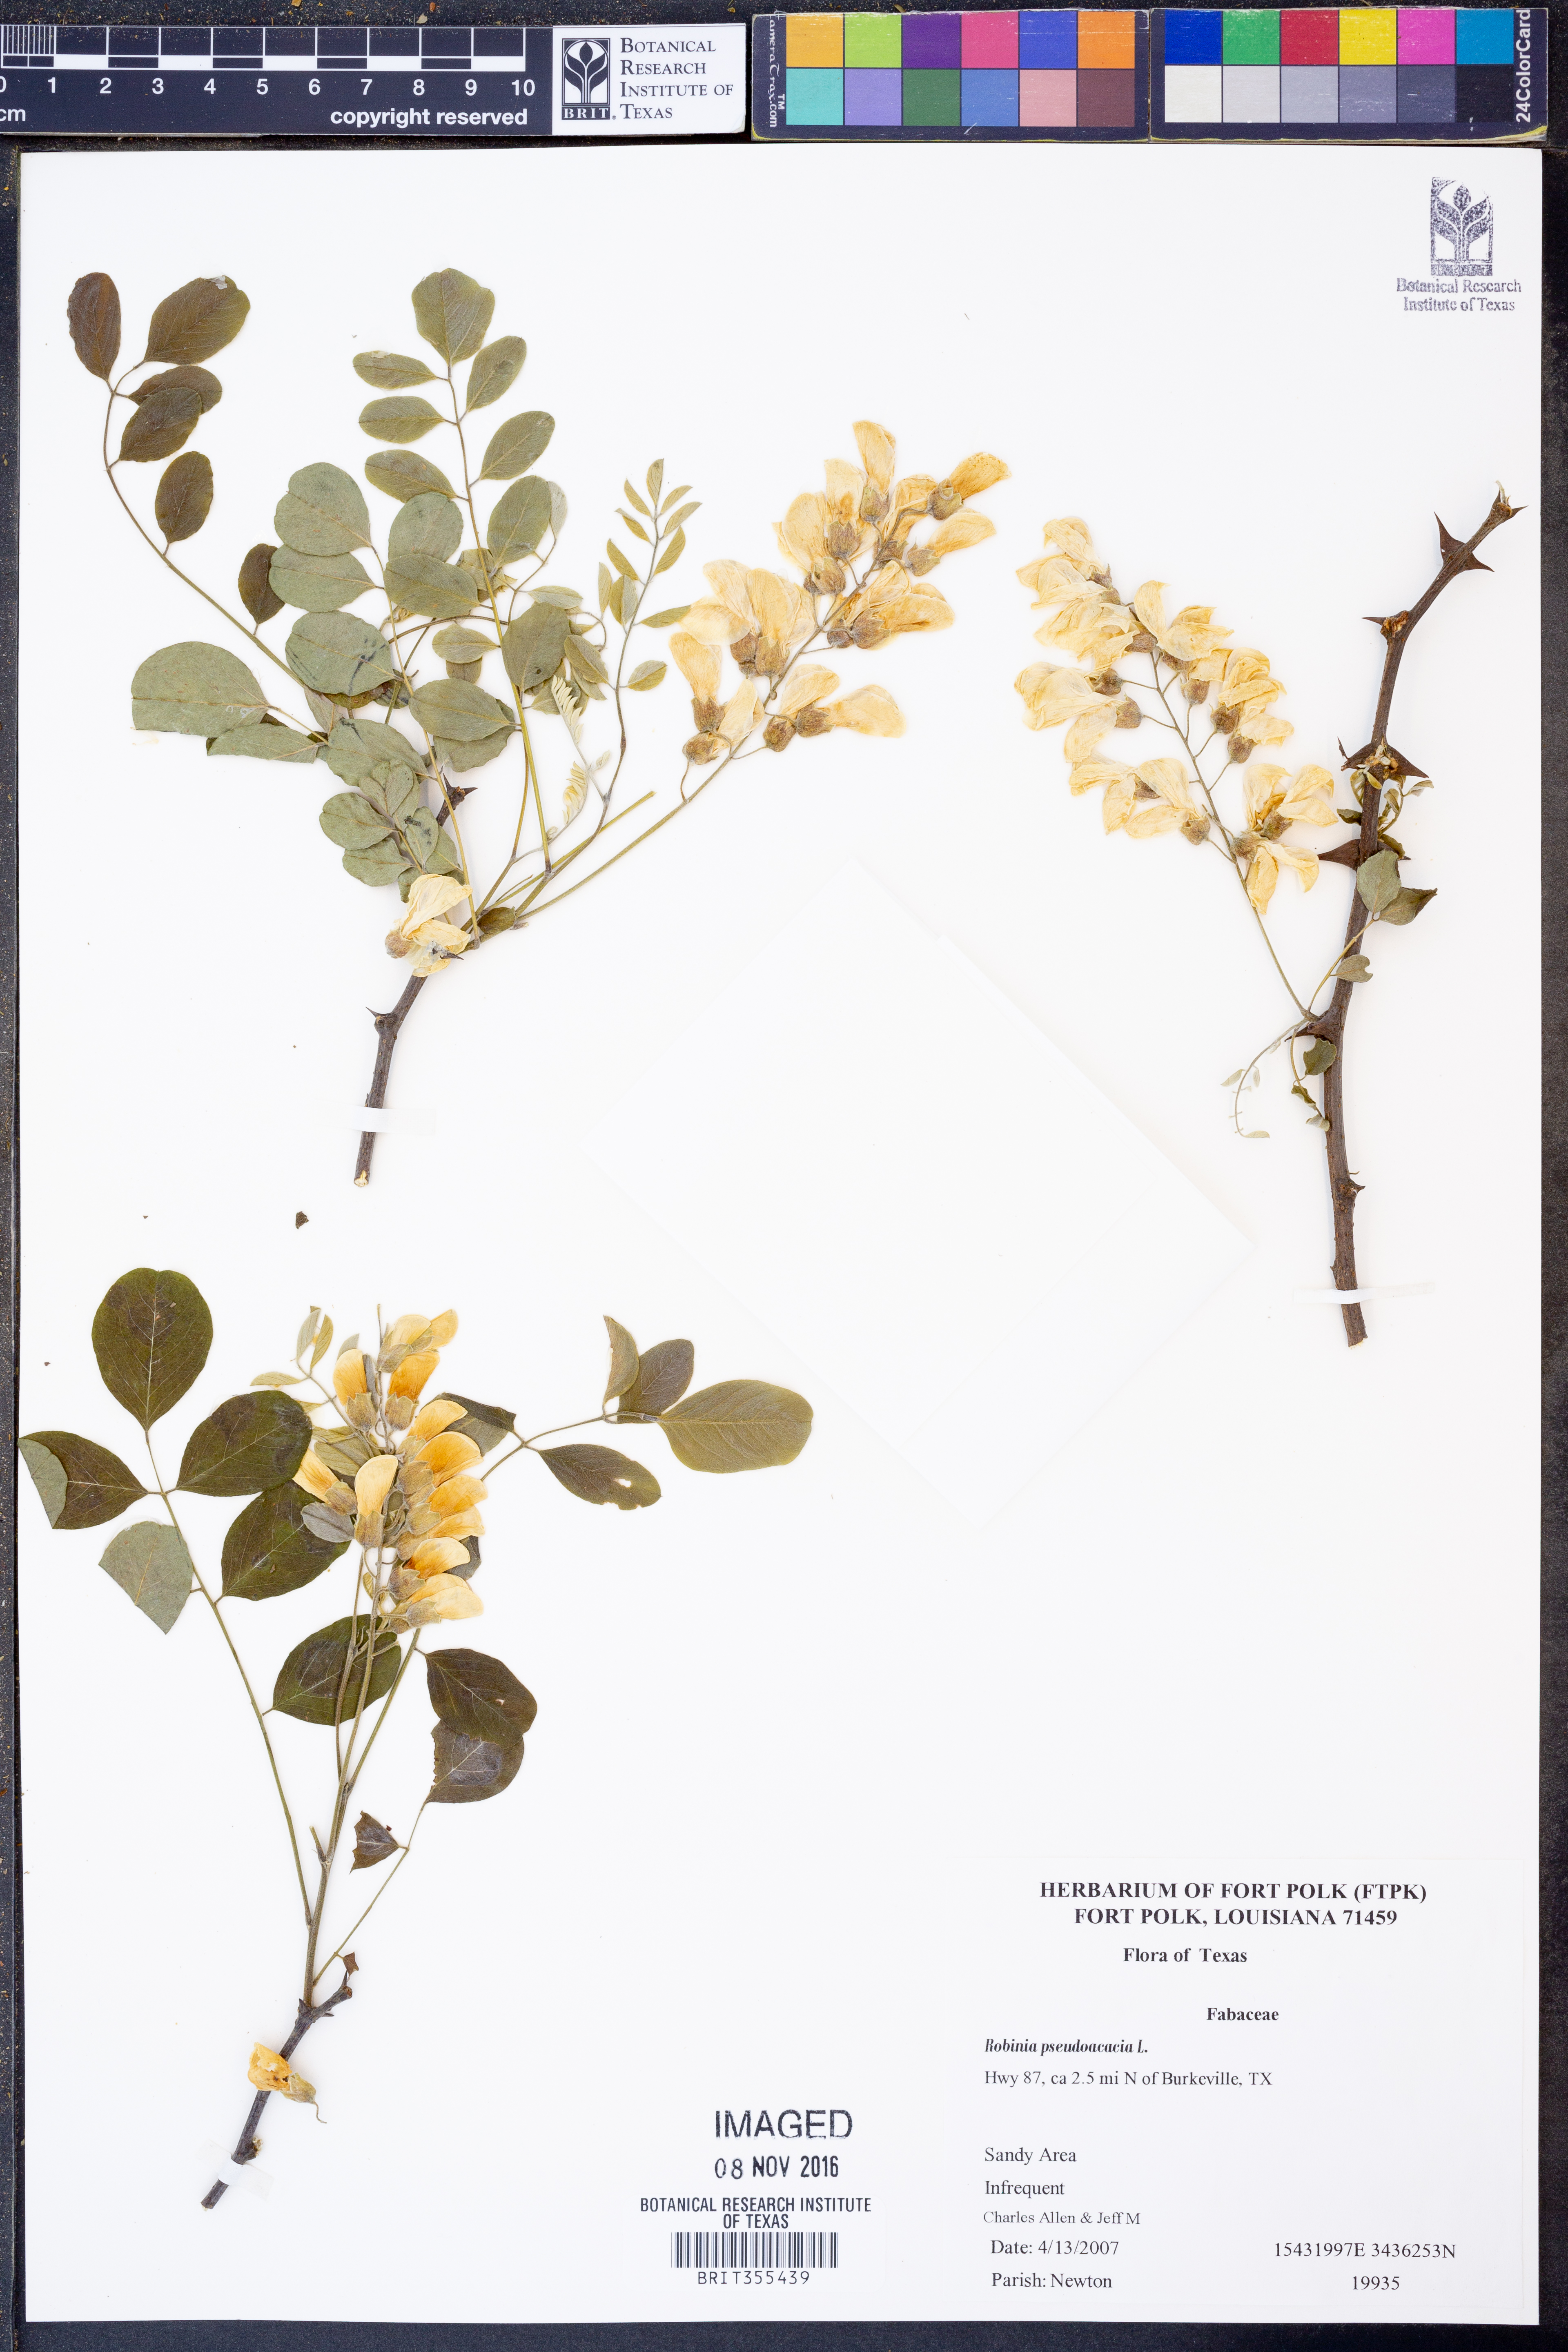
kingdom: Plantae
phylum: Tracheophyta
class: Magnoliopsida
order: Fabales
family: Fabaceae
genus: Robinia
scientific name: Robinia pseudoacacia
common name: Black locust
